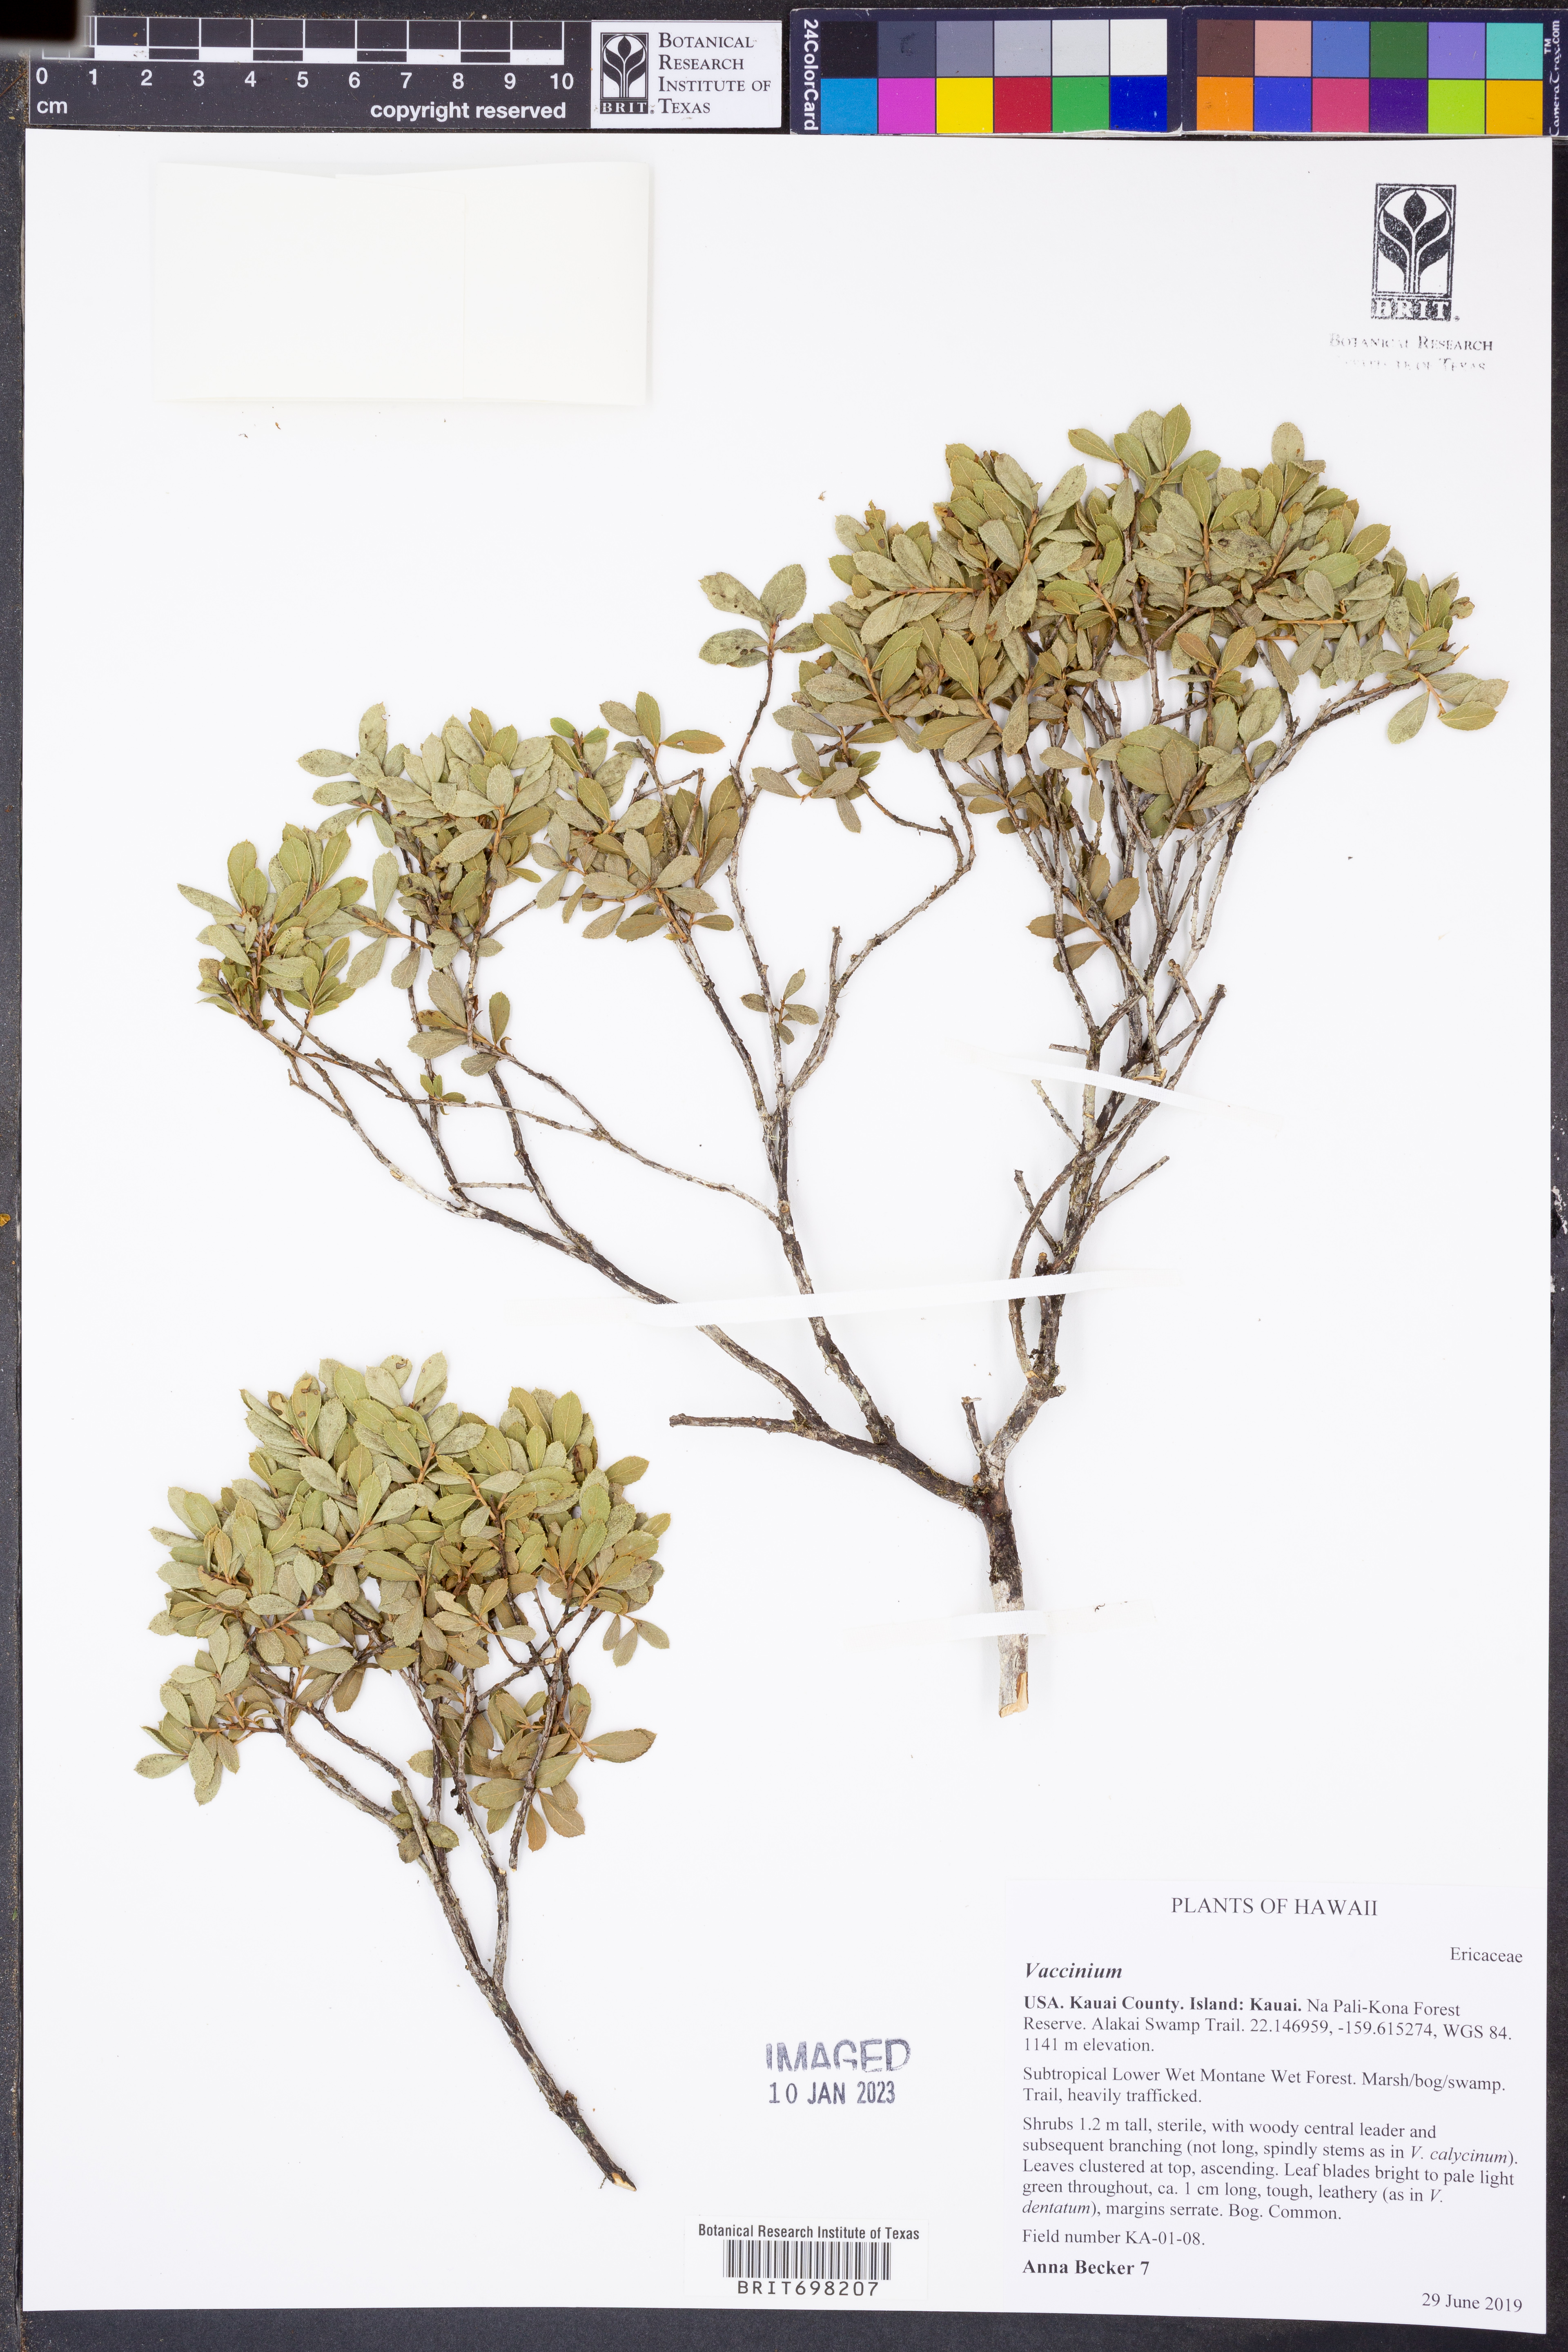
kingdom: Plantae
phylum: Tracheophyta
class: Magnoliopsida
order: Ericales
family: Ericaceae
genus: Vaccinium
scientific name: Vaccinium
